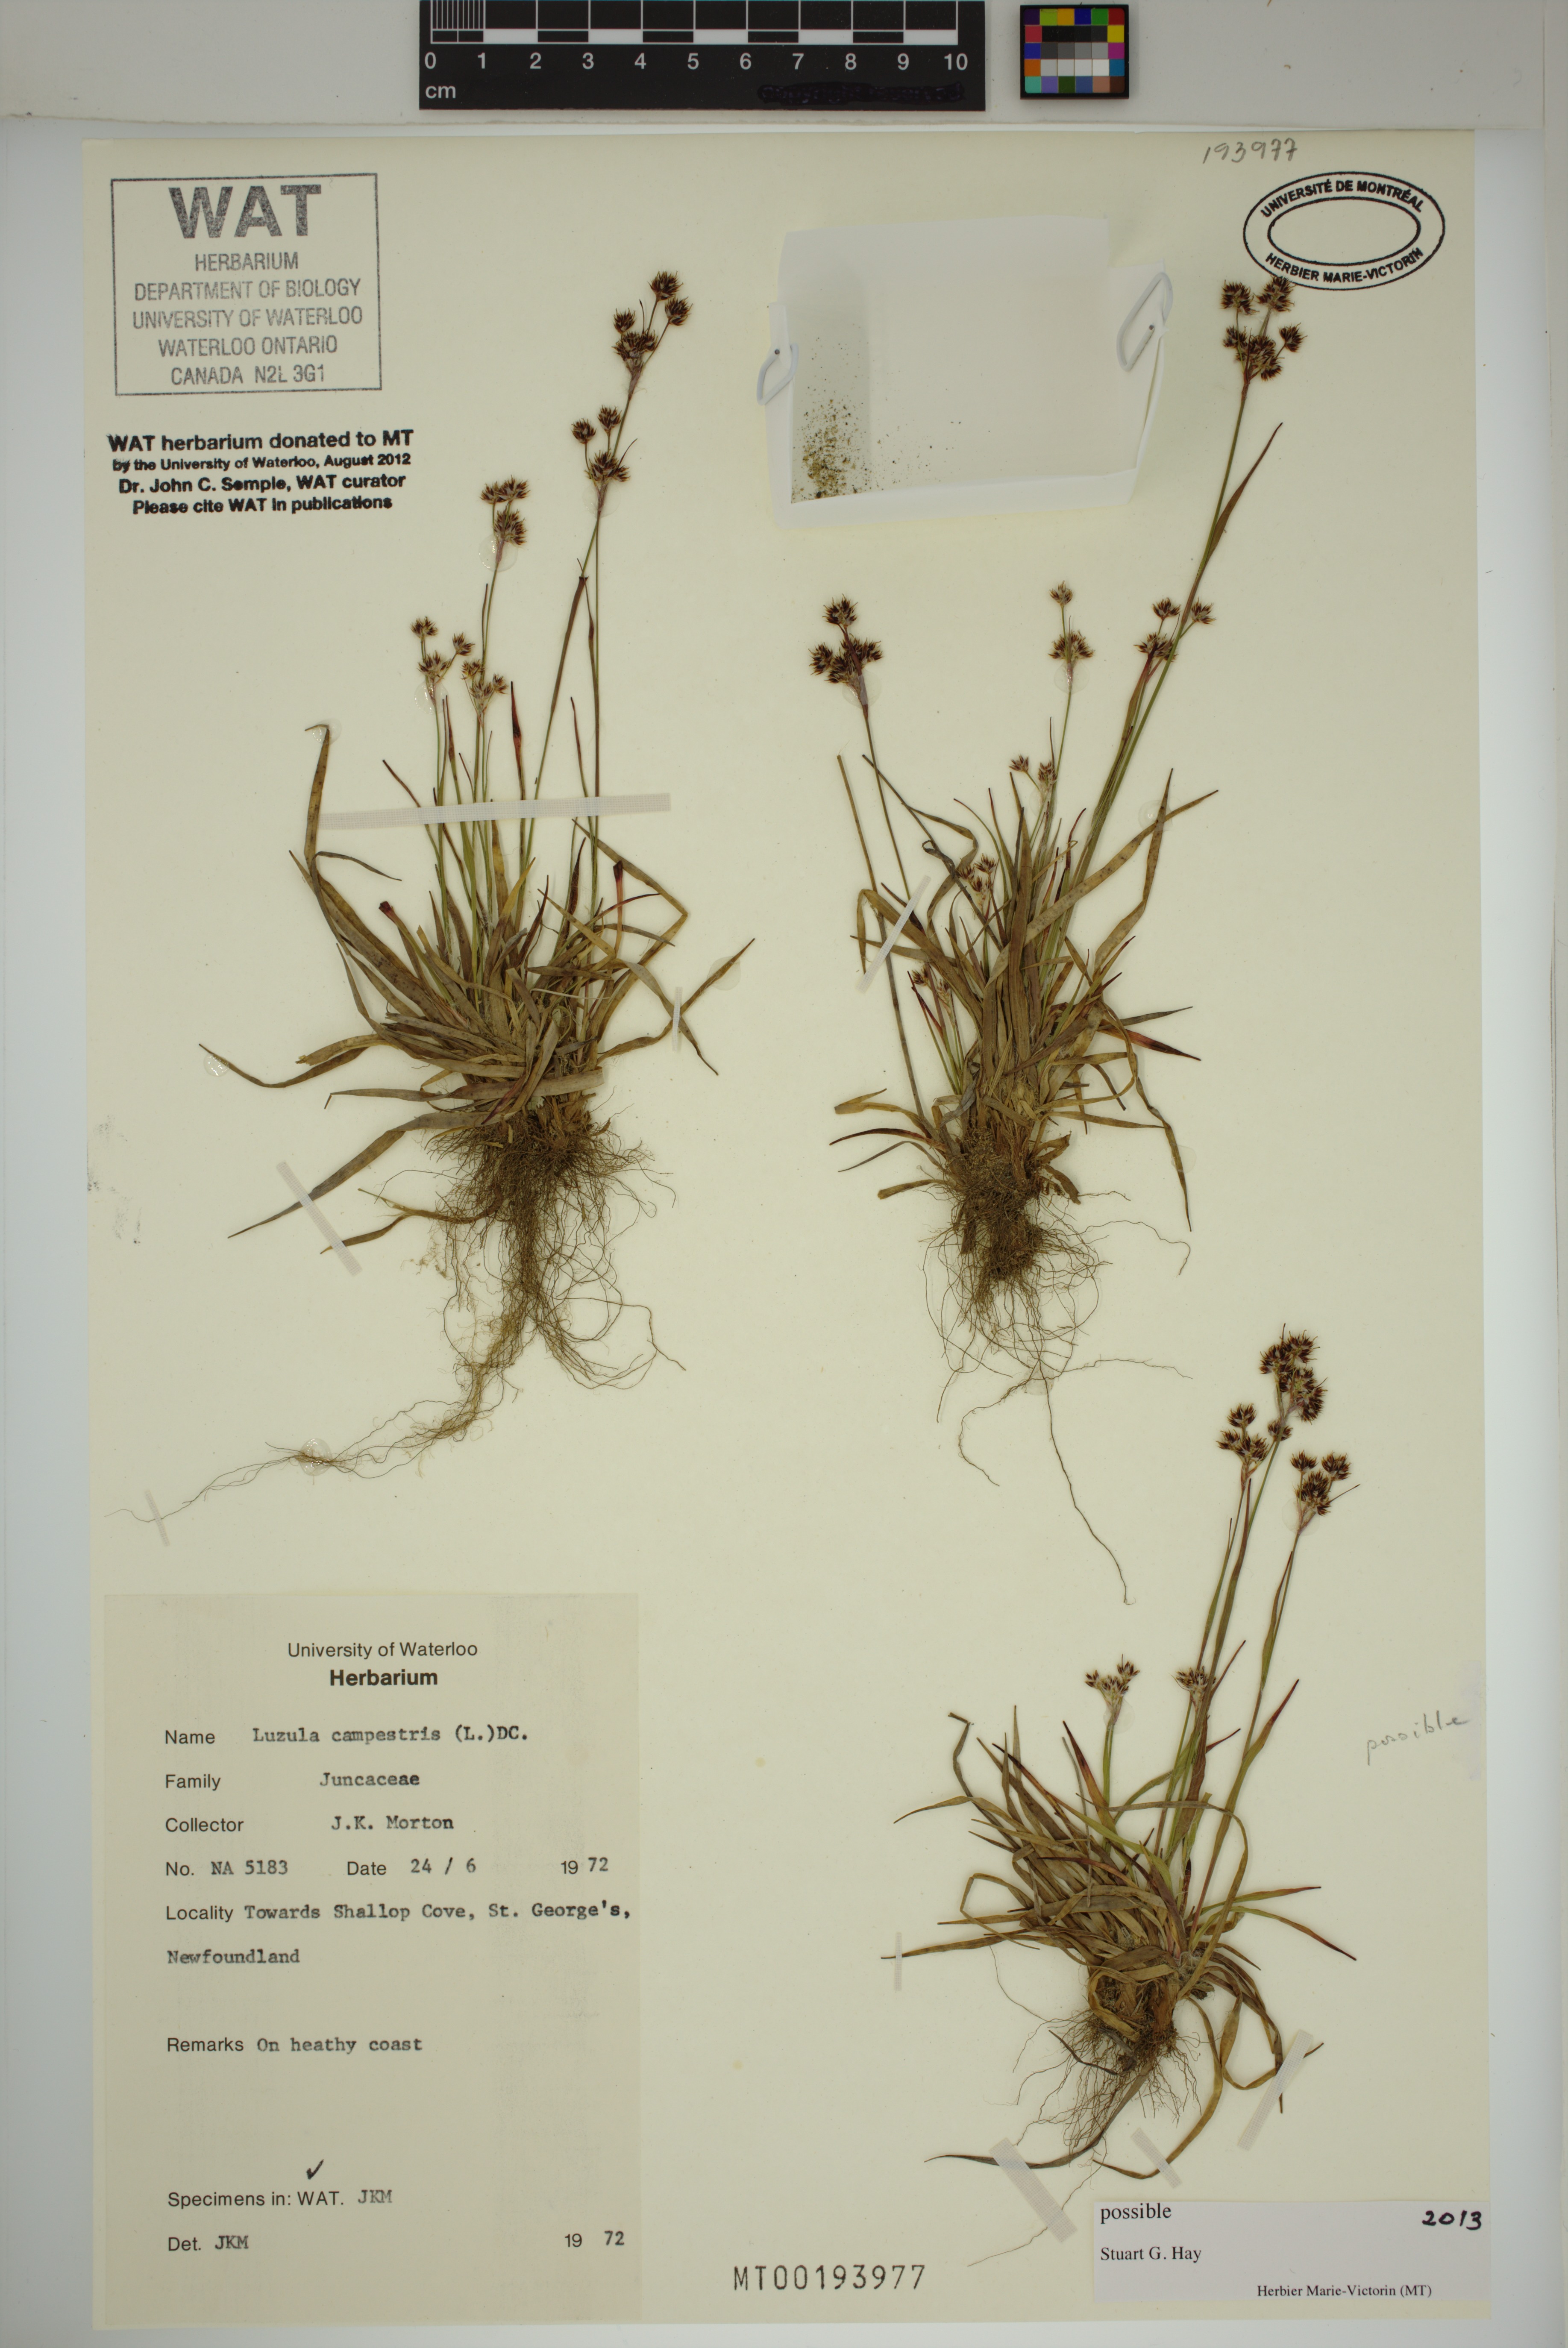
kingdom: Plantae
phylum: Tracheophyta
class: Liliopsida
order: Poales
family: Juncaceae
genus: Luzula
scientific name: Luzula campestris
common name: Field wood-rush
